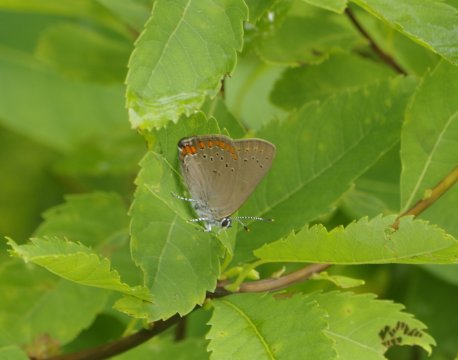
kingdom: Animalia
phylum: Arthropoda
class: Insecta
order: Lepidoptera
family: Lycaenidae
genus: Harkenclenus
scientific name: Harkenclenus titus
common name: Coral Hairstreak
